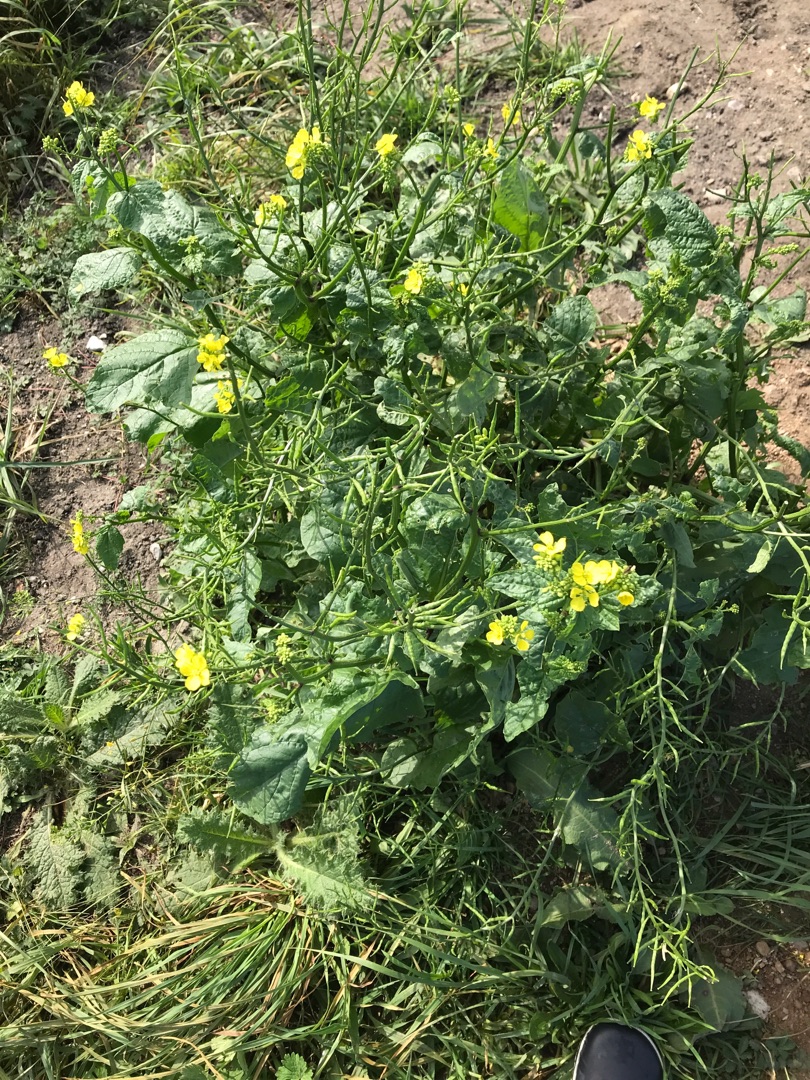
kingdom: Plantae
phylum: Tracheophyta
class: Magnoliopsida
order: Brassicales
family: Brassicaceae
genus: Sinapis
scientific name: Sinapis arvensis
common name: Ager-sennep
